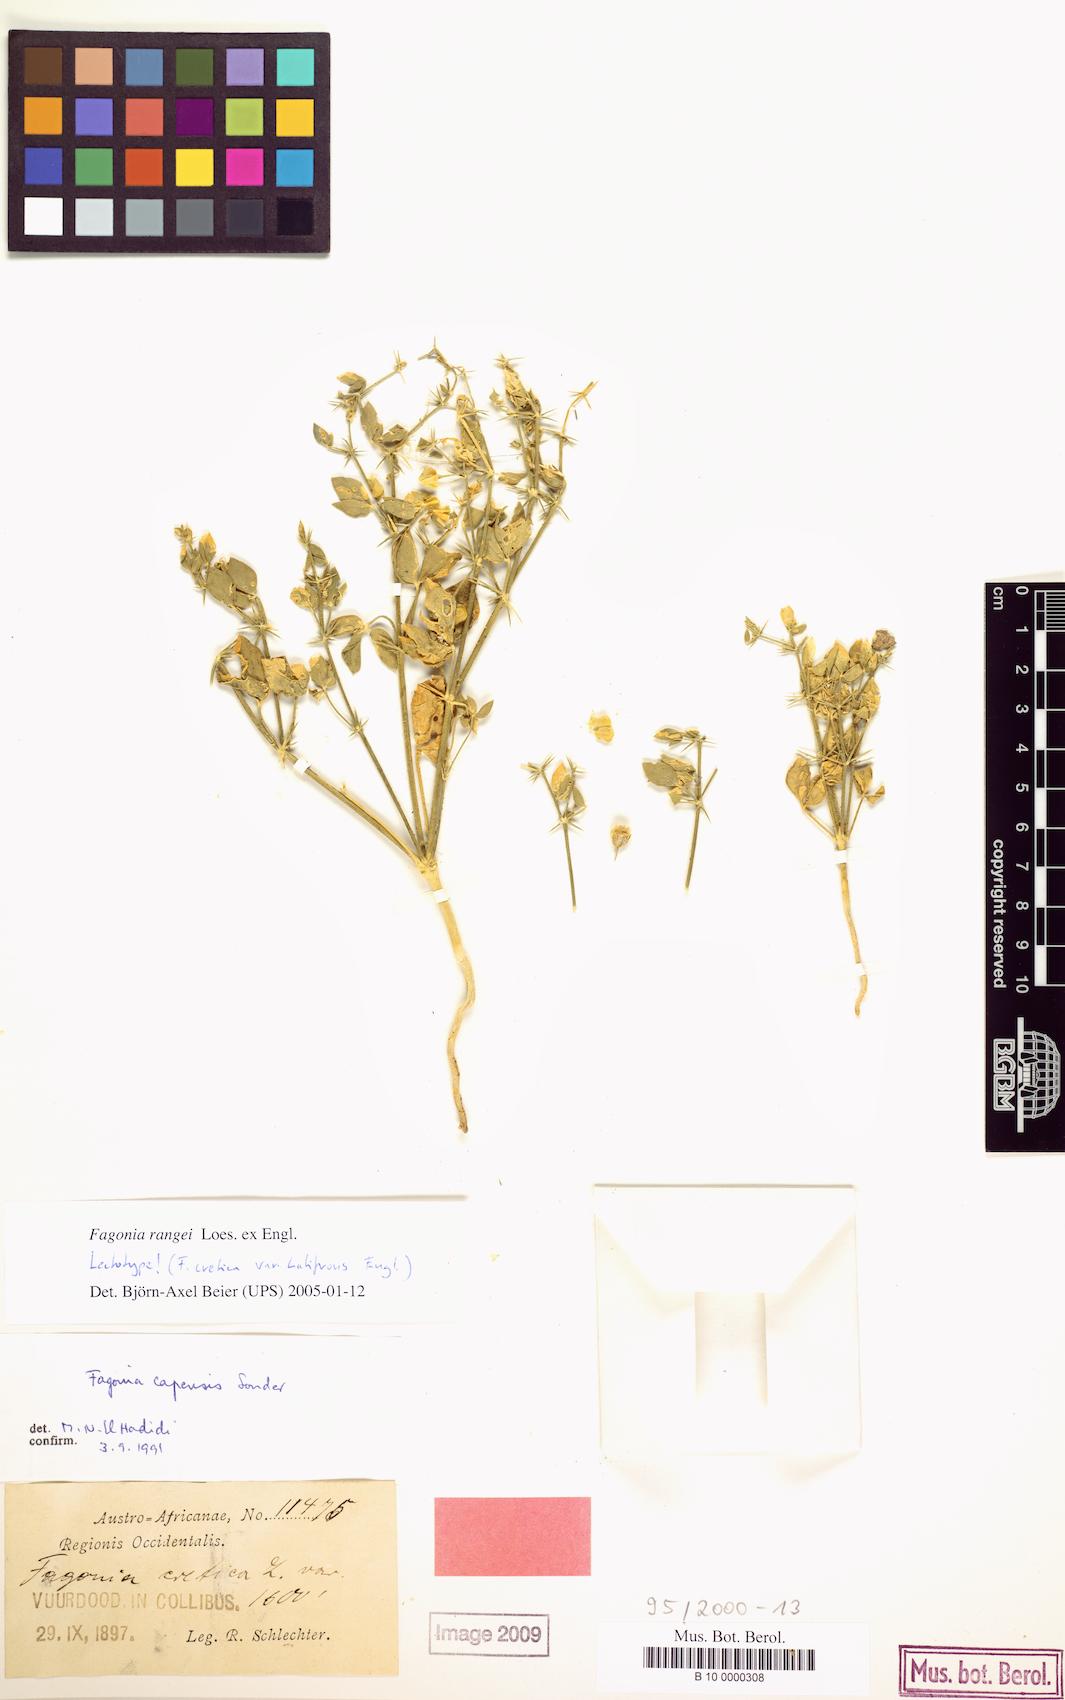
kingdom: Plantae
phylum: Tracheophyta
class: Magnoliopsida
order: Zygophyllales
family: Zygophyllaceae
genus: Zygophyllum
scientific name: Zygophyllum Fagonia rangei
